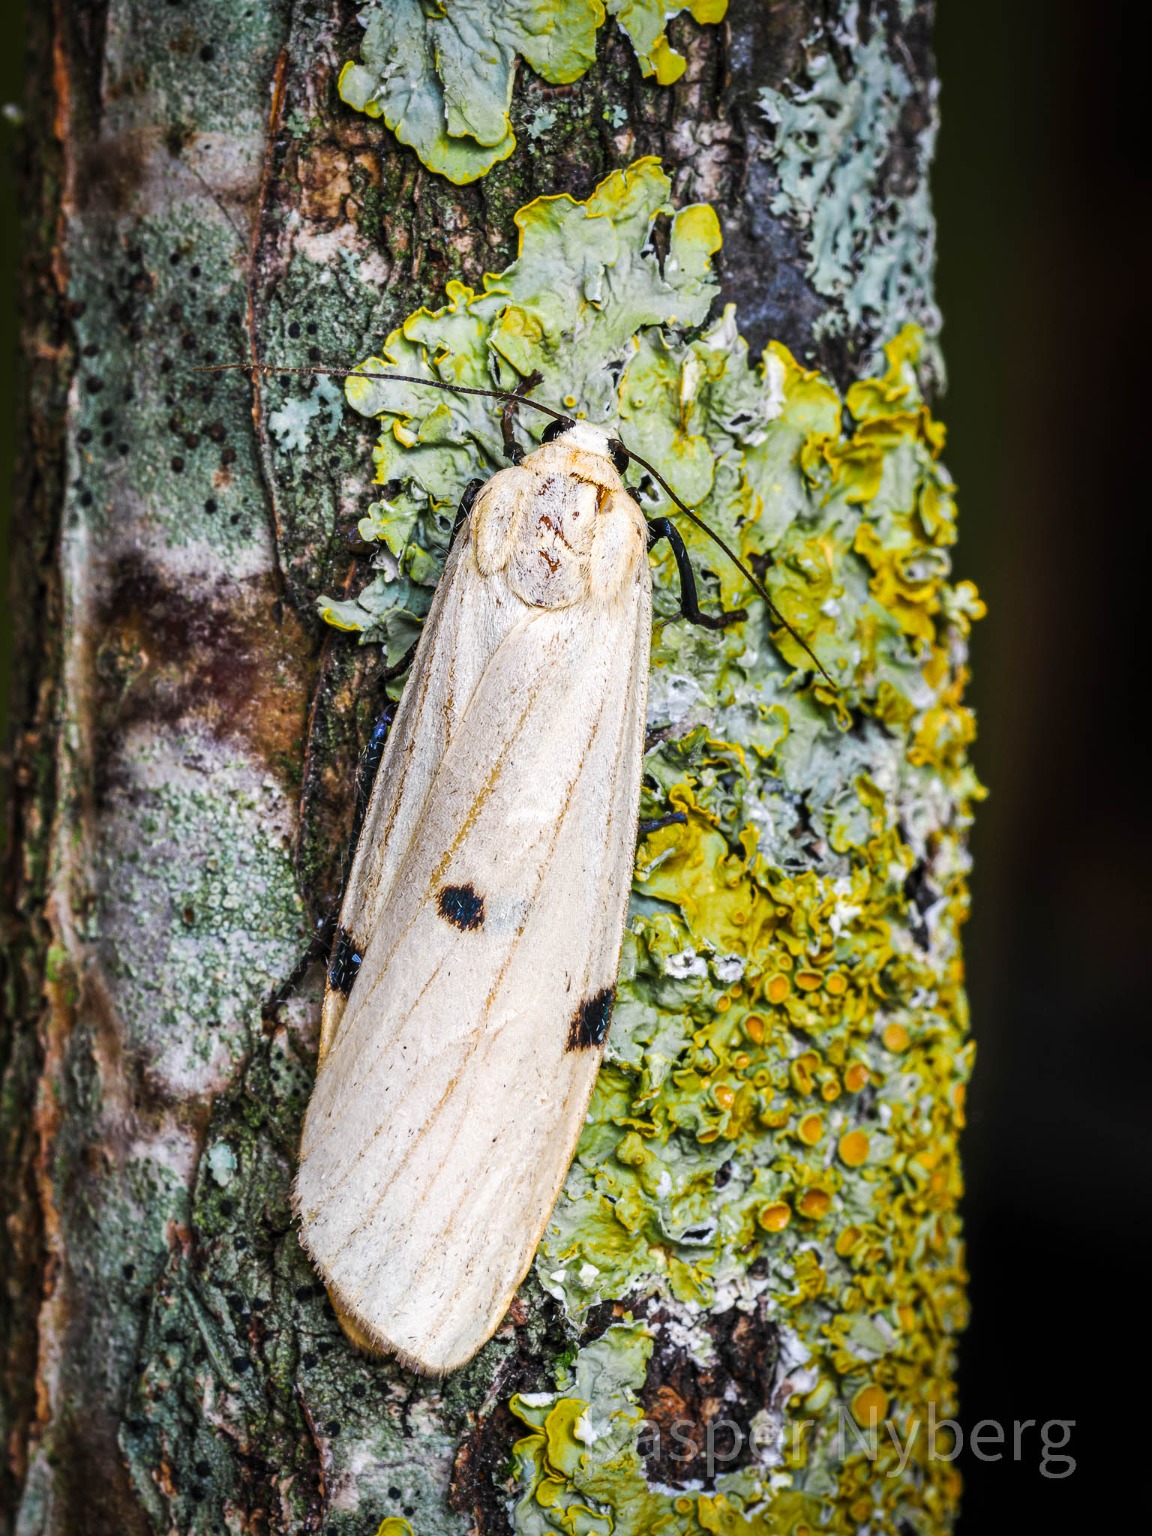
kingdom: Animalia
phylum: Arthropoda
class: Insecta
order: Lepidoptera
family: Erebidae
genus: Lithosia
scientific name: Lithosia quadra
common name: Stor lavspinder
